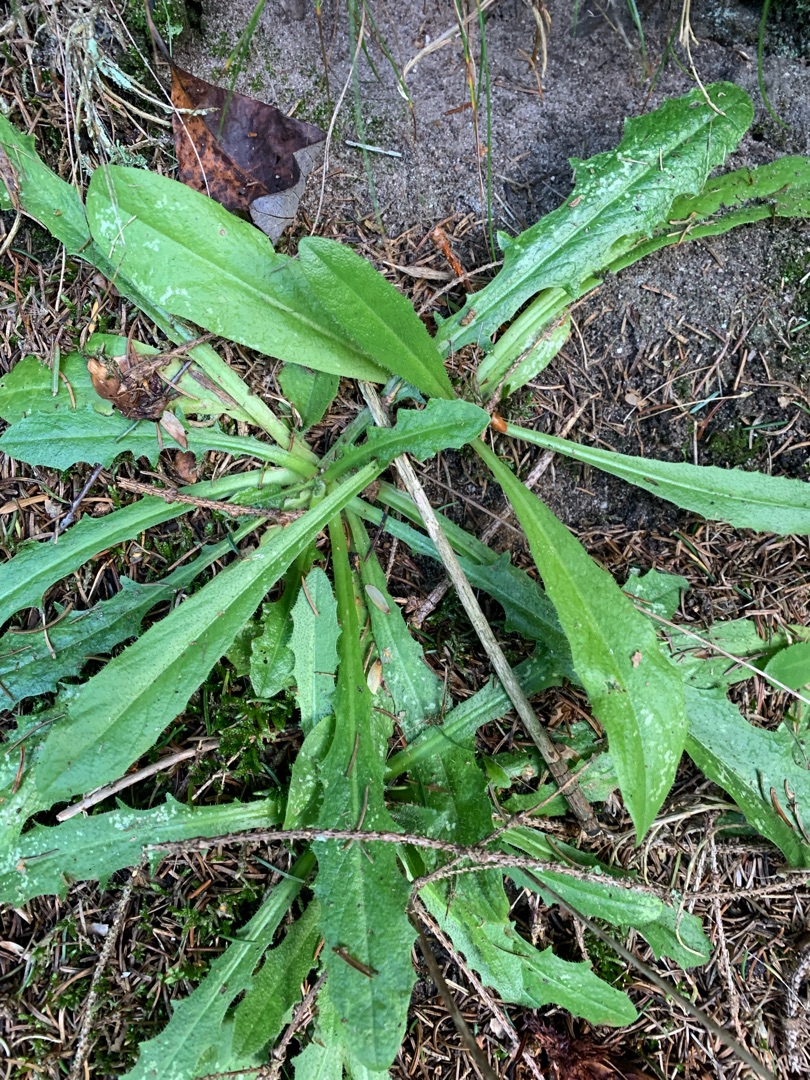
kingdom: Plantae
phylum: Tracheophyta
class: Magnoliopsida
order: Asterales
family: Asteraceae
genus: Hypochaeris
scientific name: Hypochaeris radicata
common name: Almindelig kongepen
